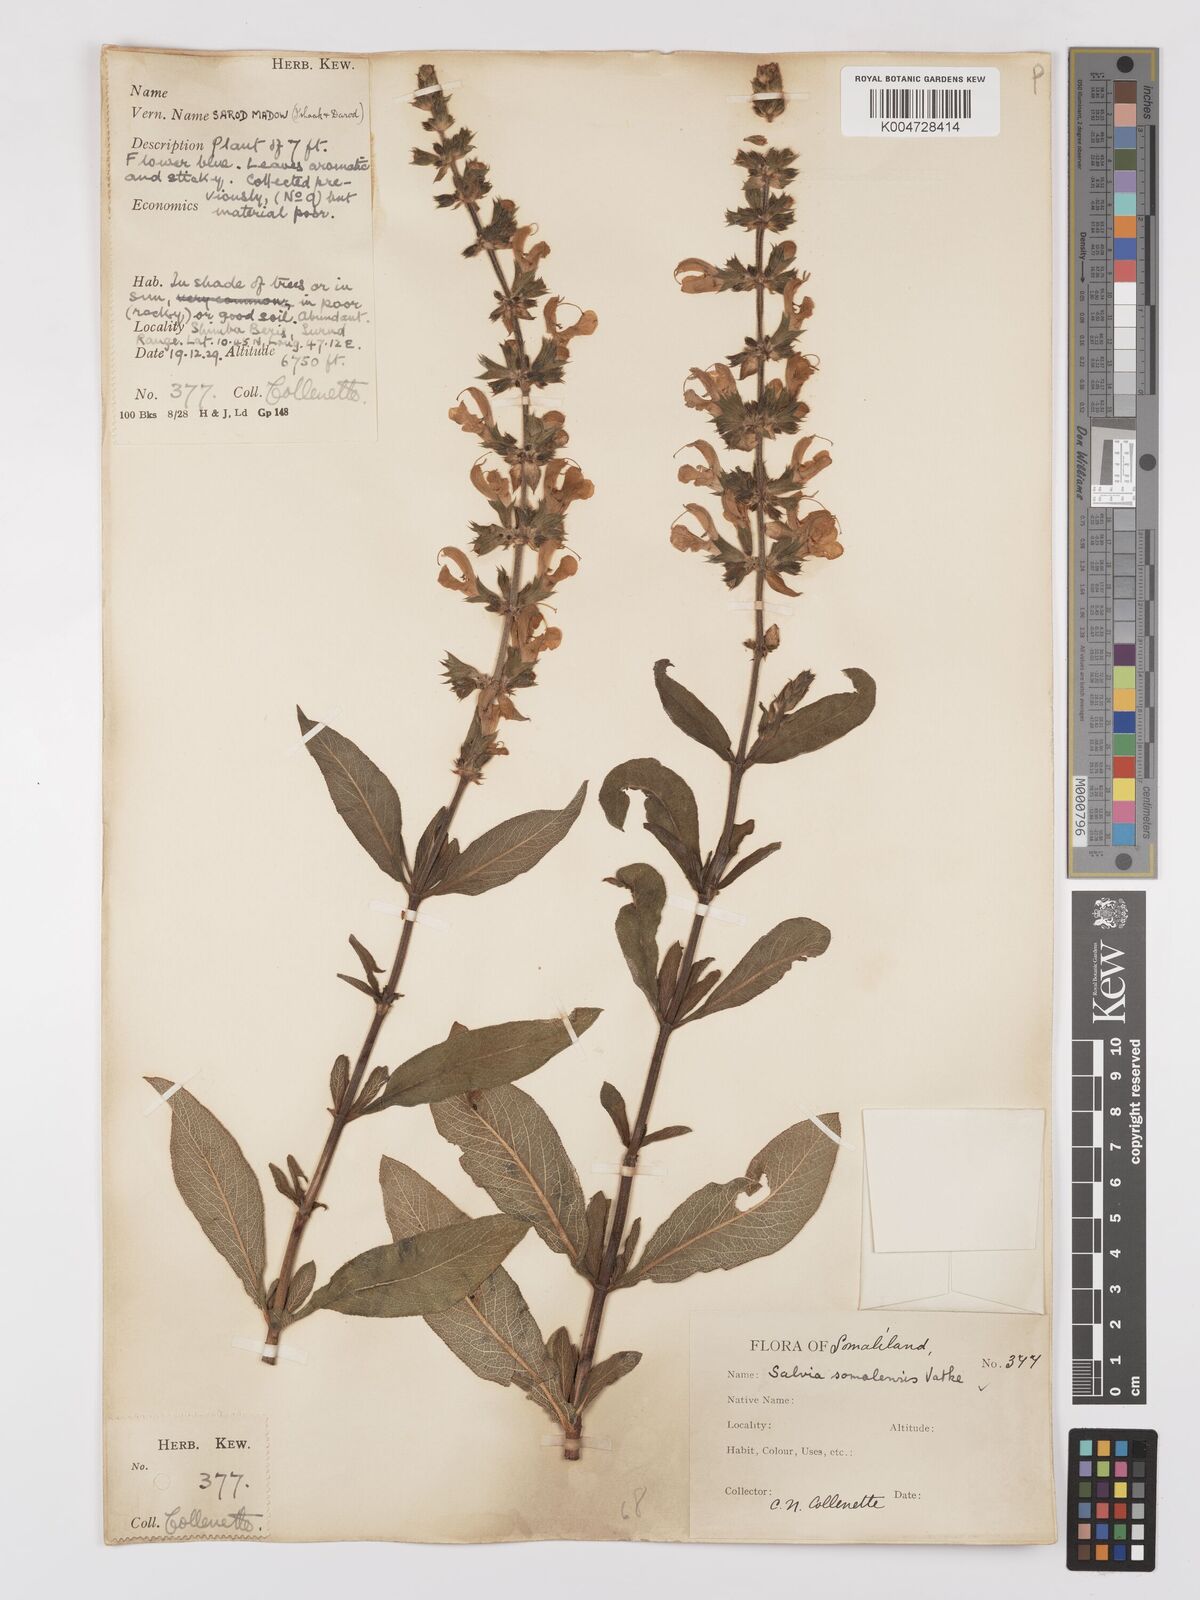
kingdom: Plantae
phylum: Tracheophyta
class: Magnoliopsida
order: Lamiales
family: Lamiaceae
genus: Salvia
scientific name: Salvia somalensis
